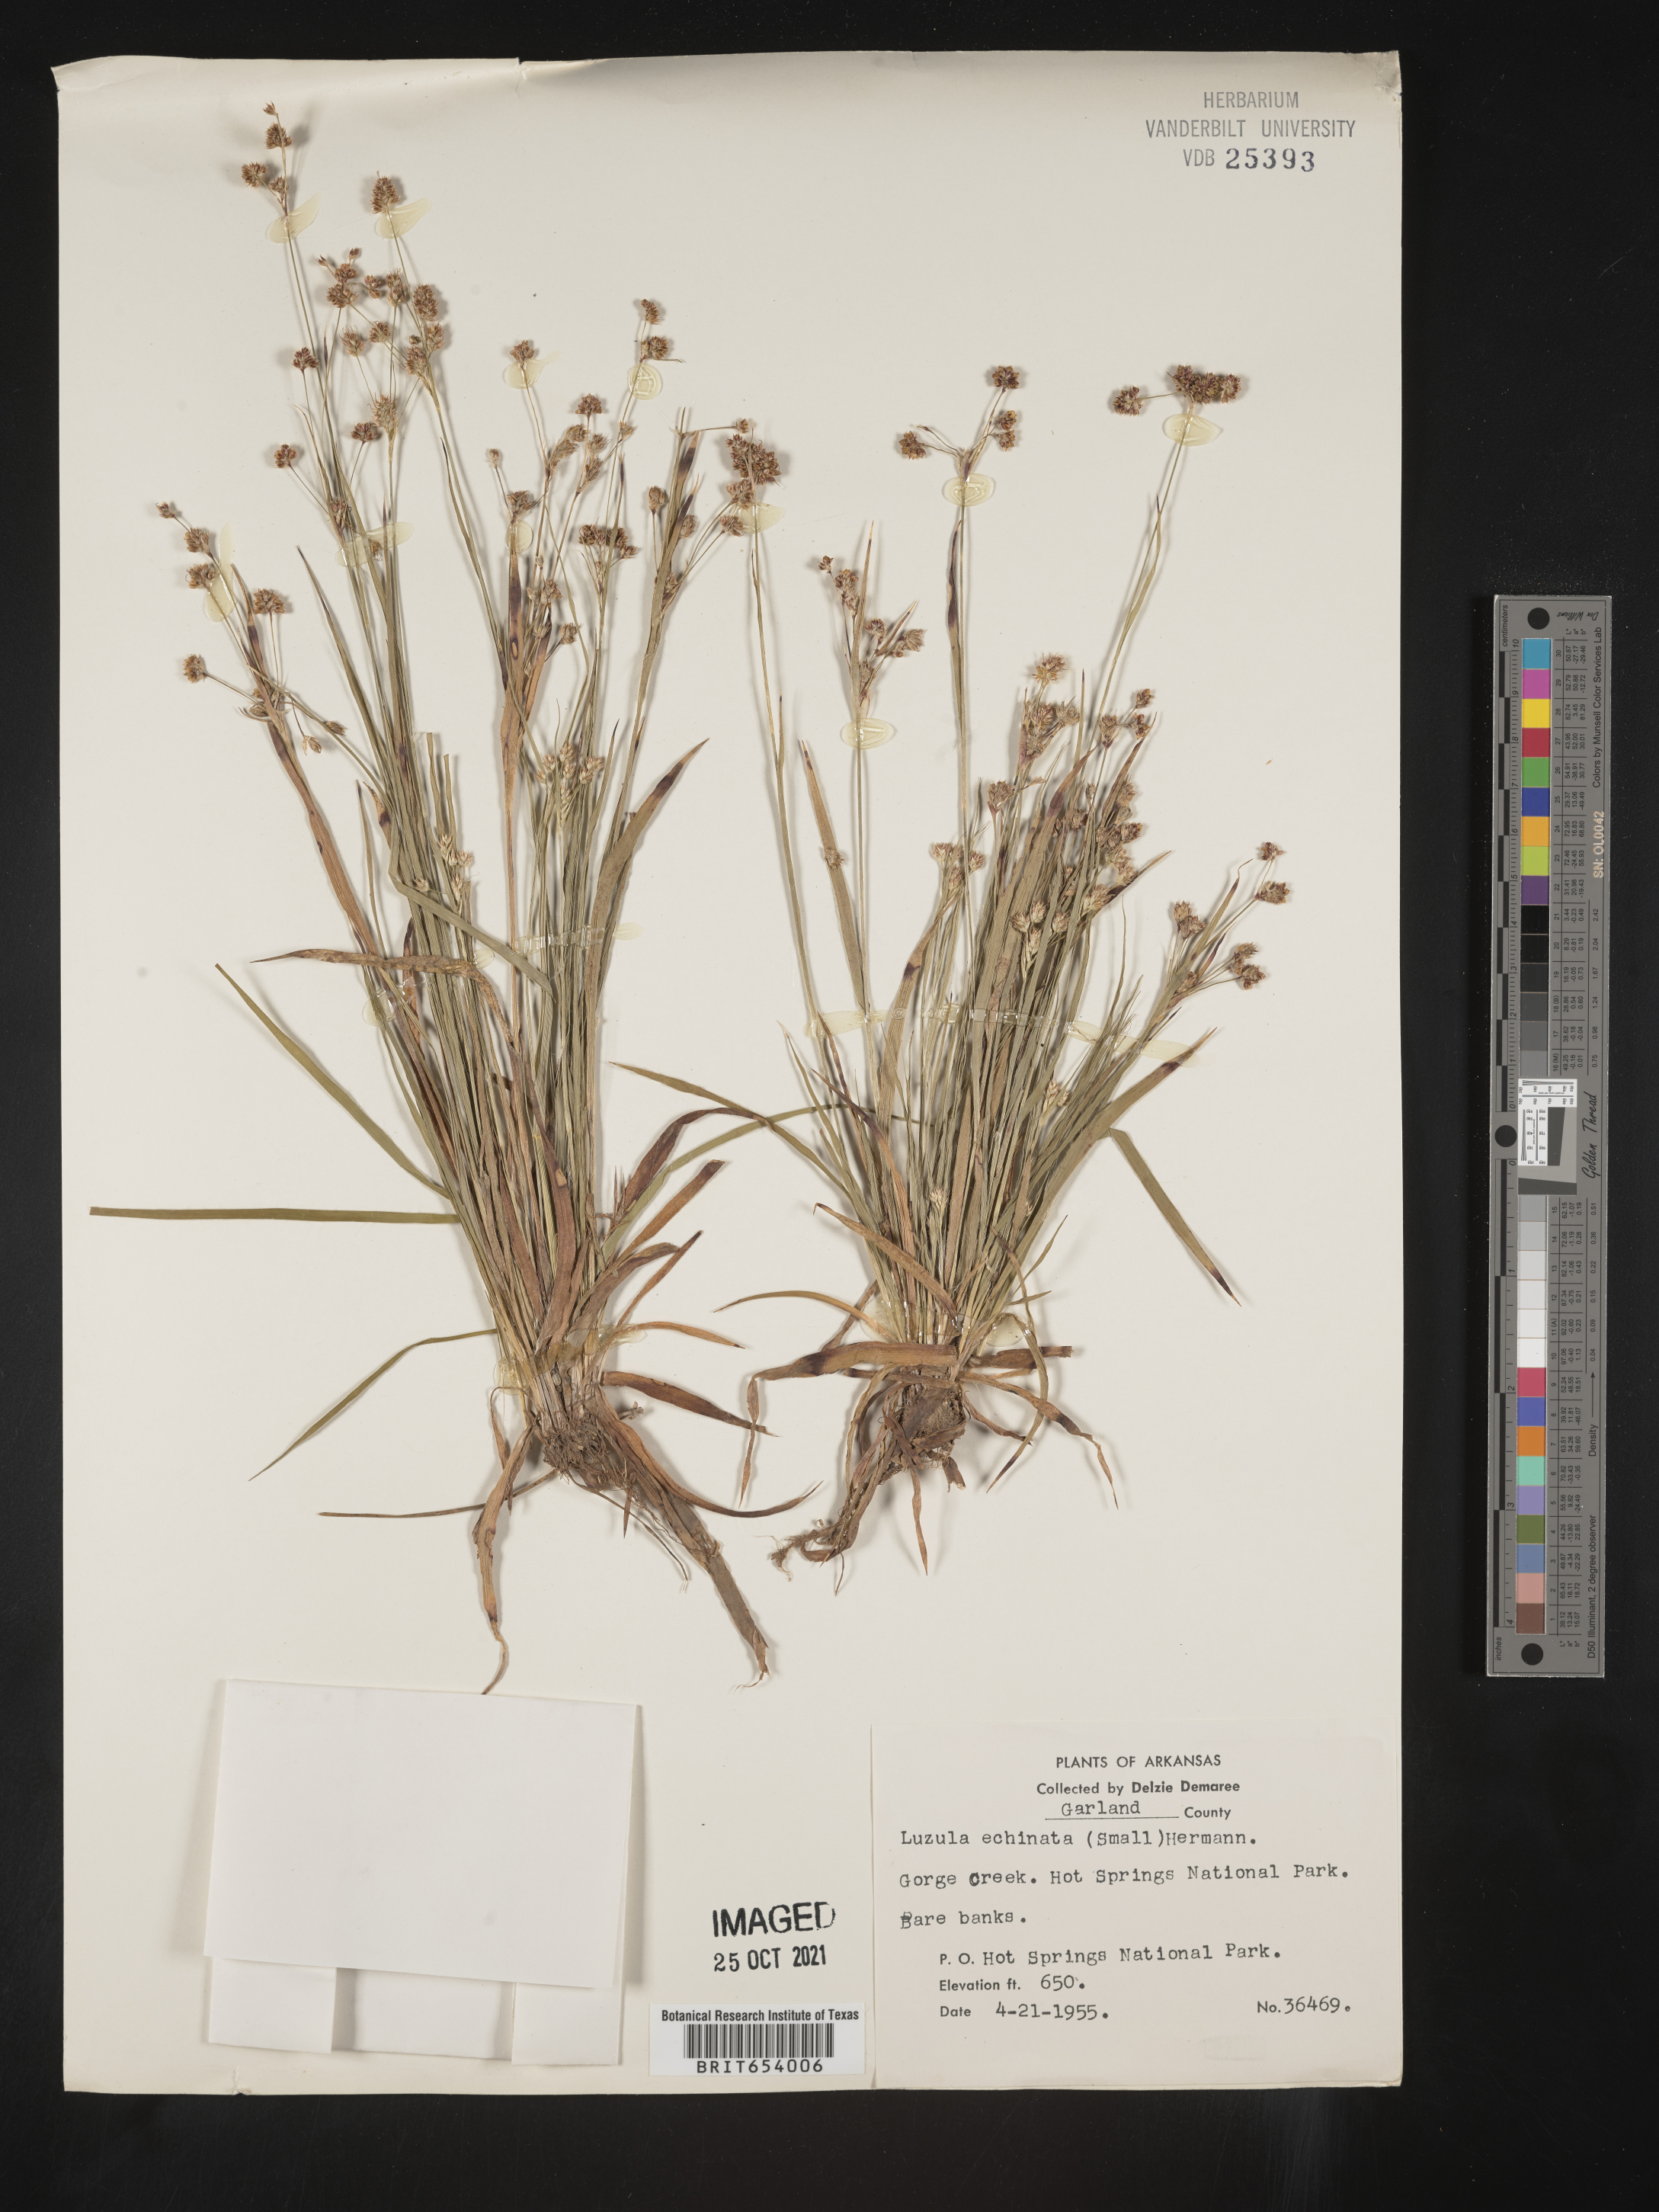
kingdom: Plantae
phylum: Tracheophyta
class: Liliopsida
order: Poales
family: Juncaceae
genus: Luzula
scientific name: Luzula echinata
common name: Hedgehog woodrush
